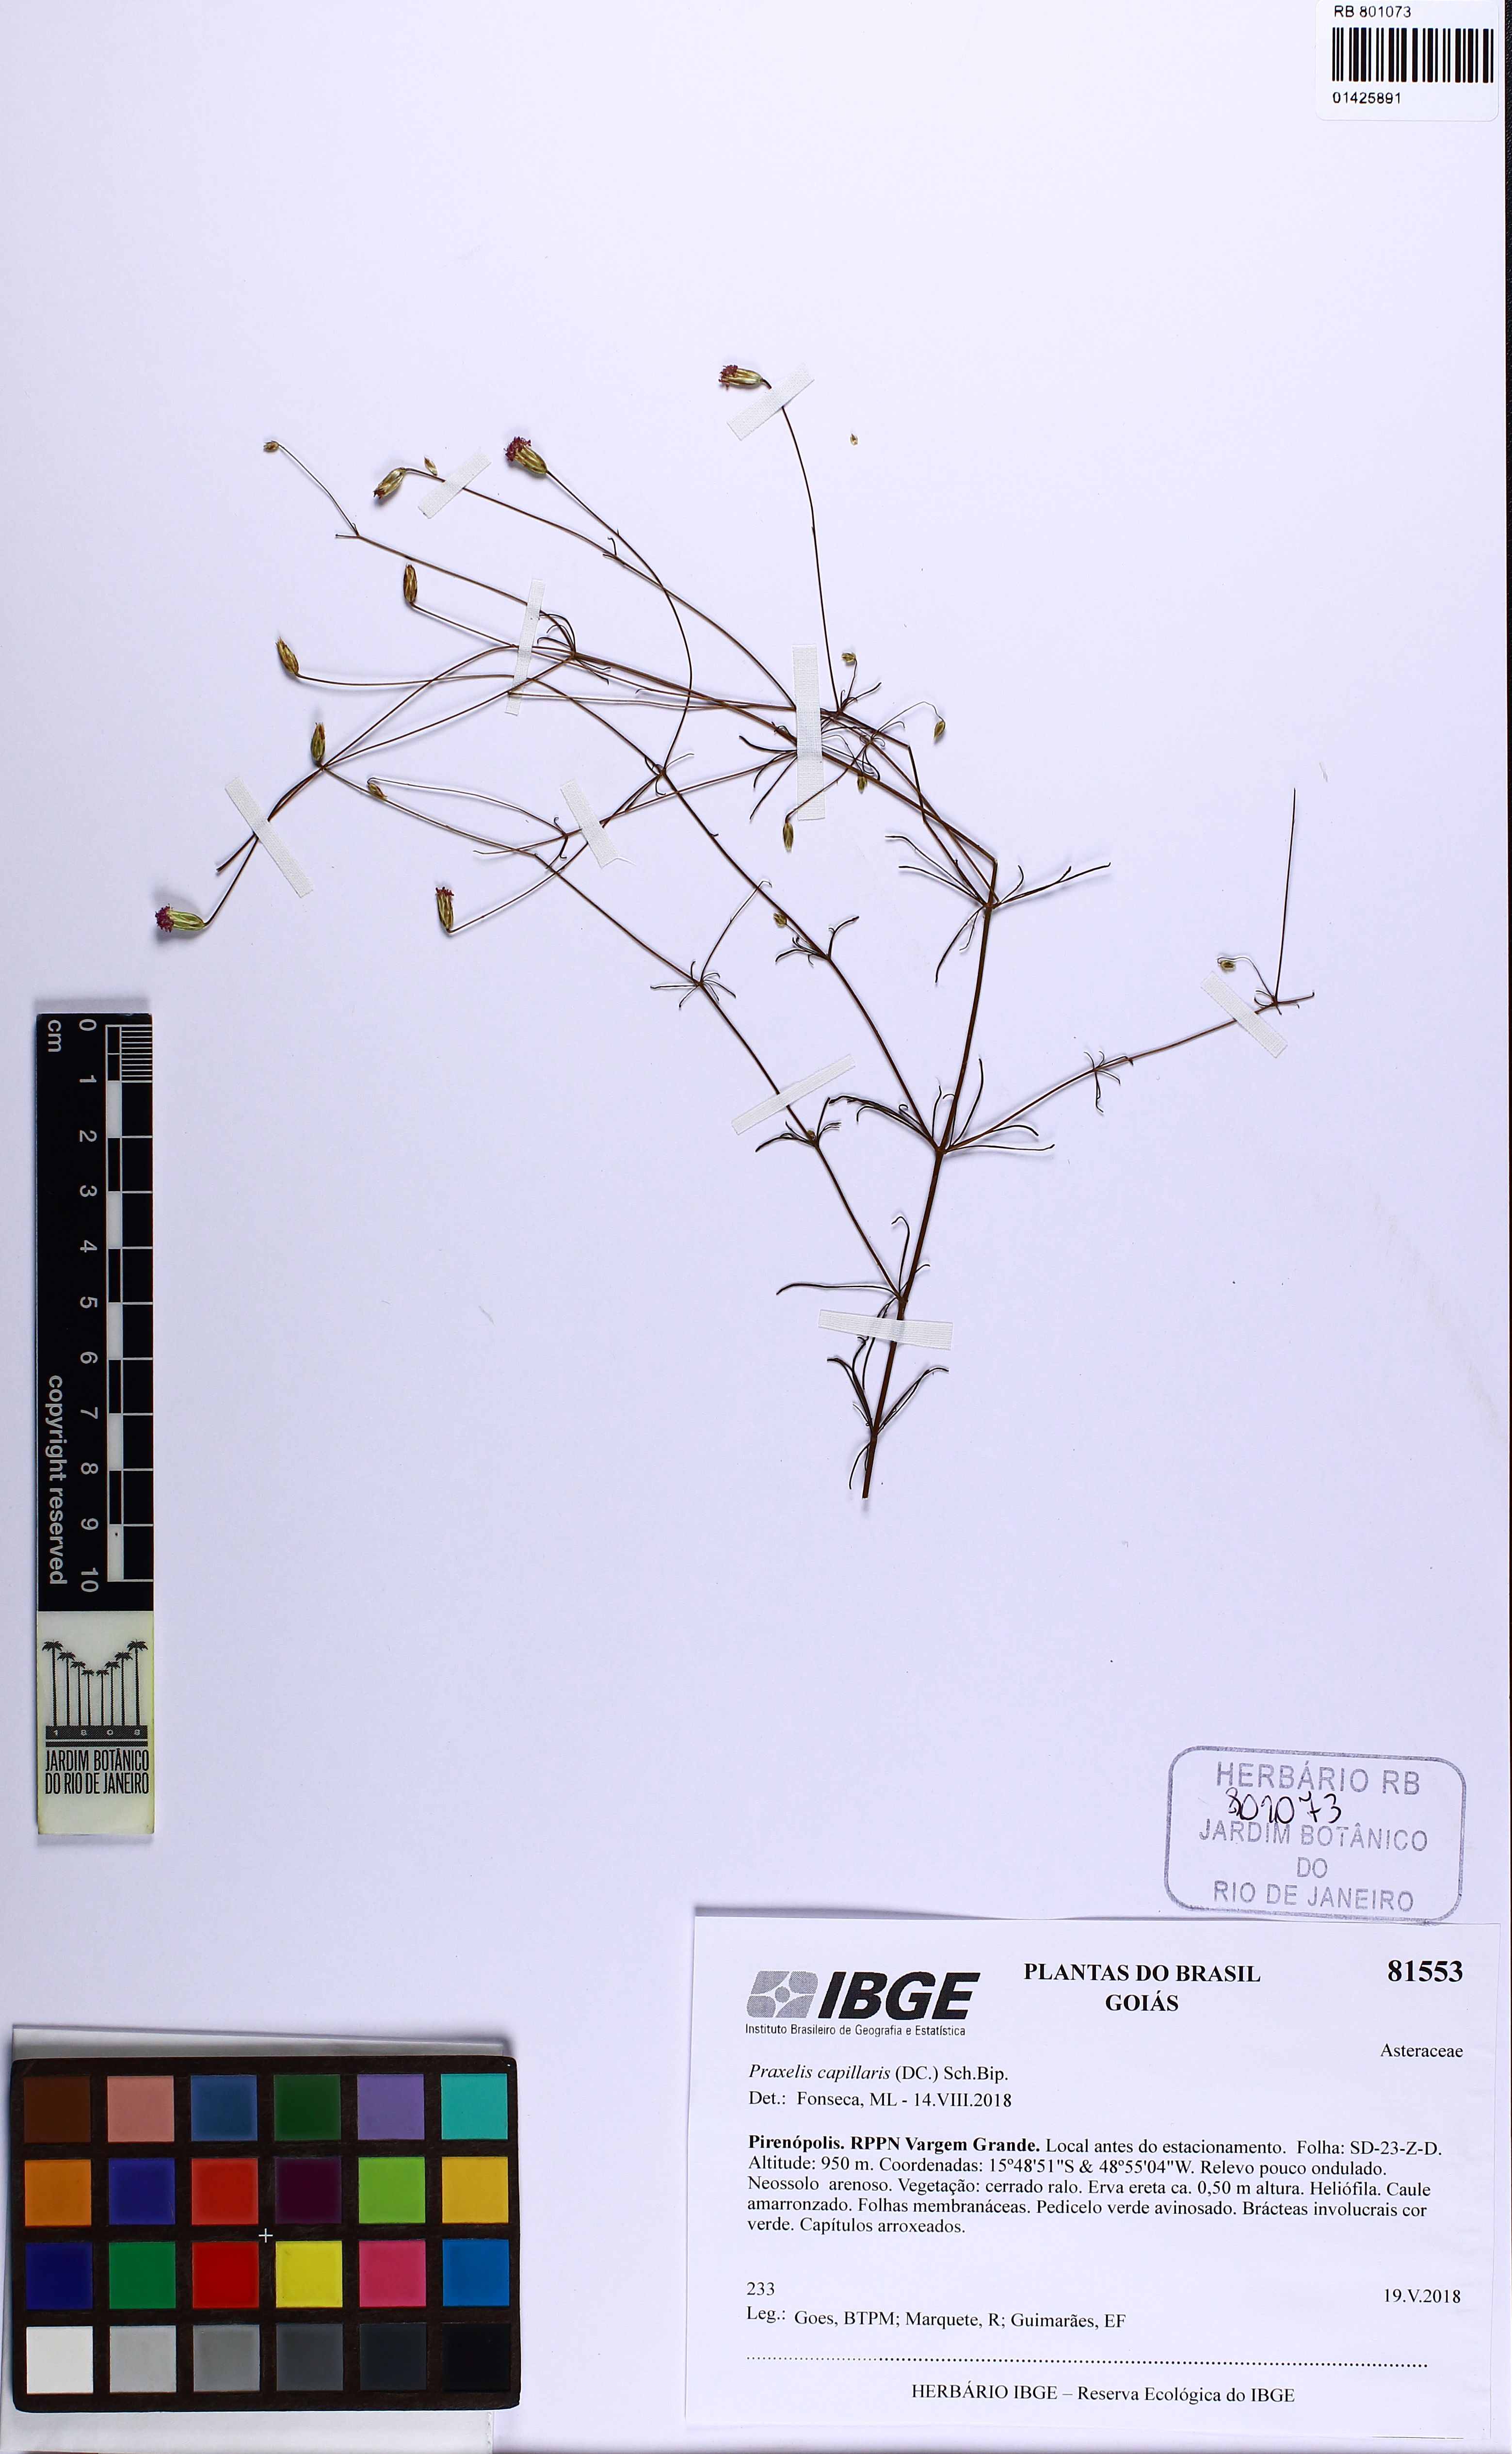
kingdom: Plantae
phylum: Tracheophyta
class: Magnoliopsida
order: Asterales
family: Asteraceae
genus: Praxelis
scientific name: Praxelis capillaris
